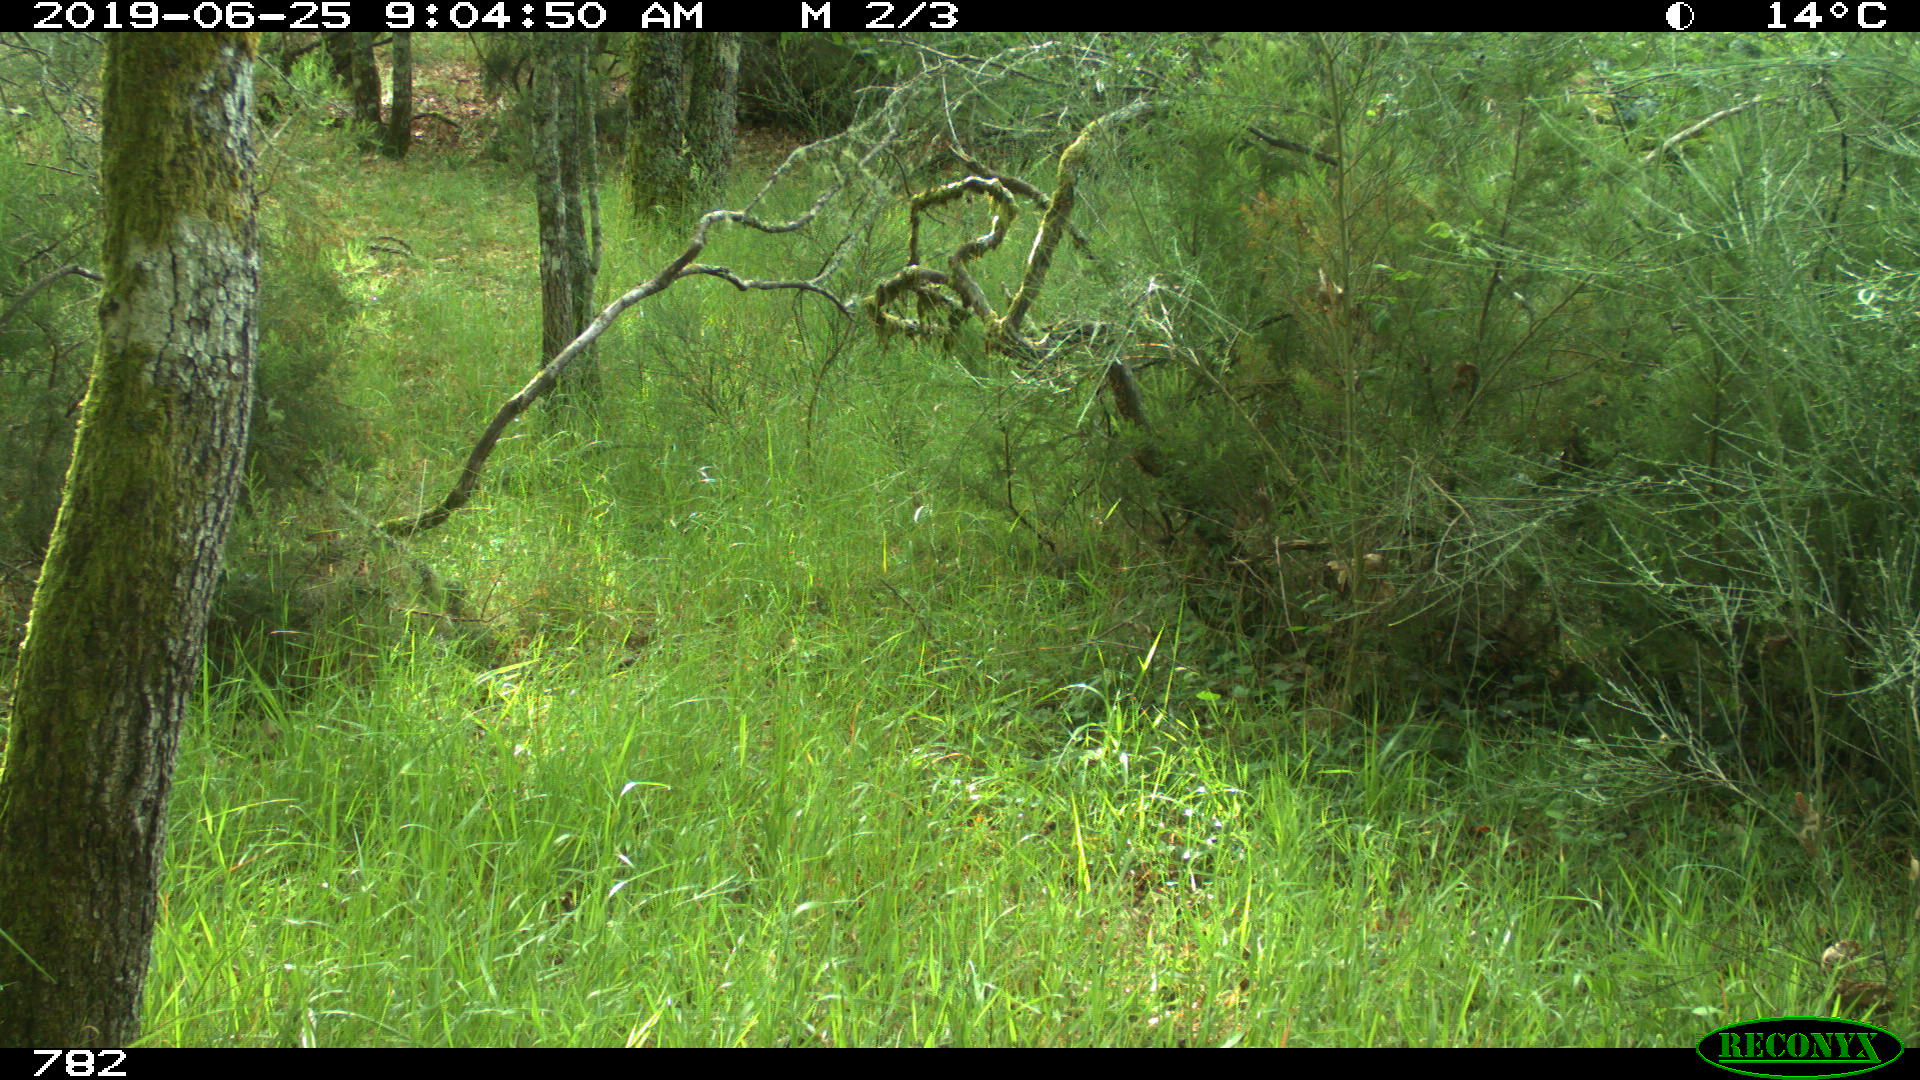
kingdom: Animalia
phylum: Chordata
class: Mammalia
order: Artiodactyla
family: Cervidae
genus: Capreolus
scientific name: Capreolus capreolus
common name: Western roe deer
